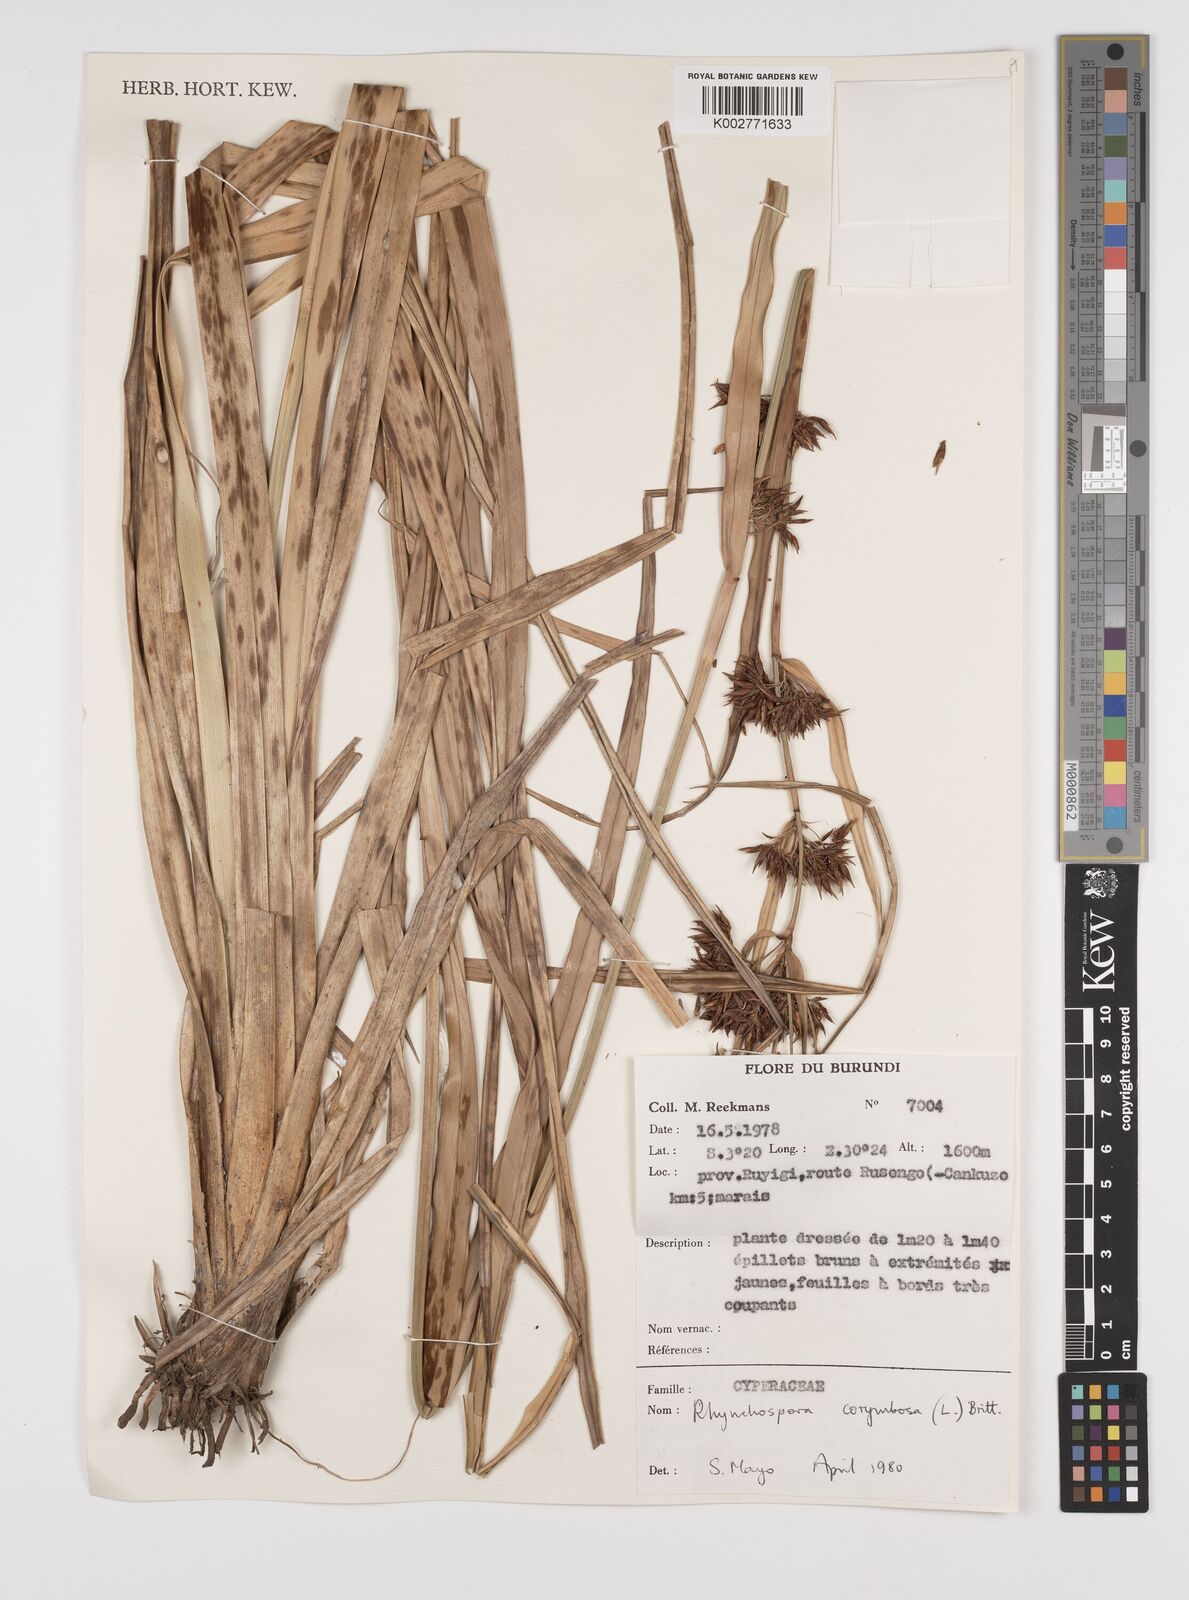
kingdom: Plantae
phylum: Tracheophyta
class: Liliopsida
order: Poales
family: Cyperaceae
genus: Rhynchospora
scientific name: Rhynchospora corymbosa
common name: Golden beak sedge
